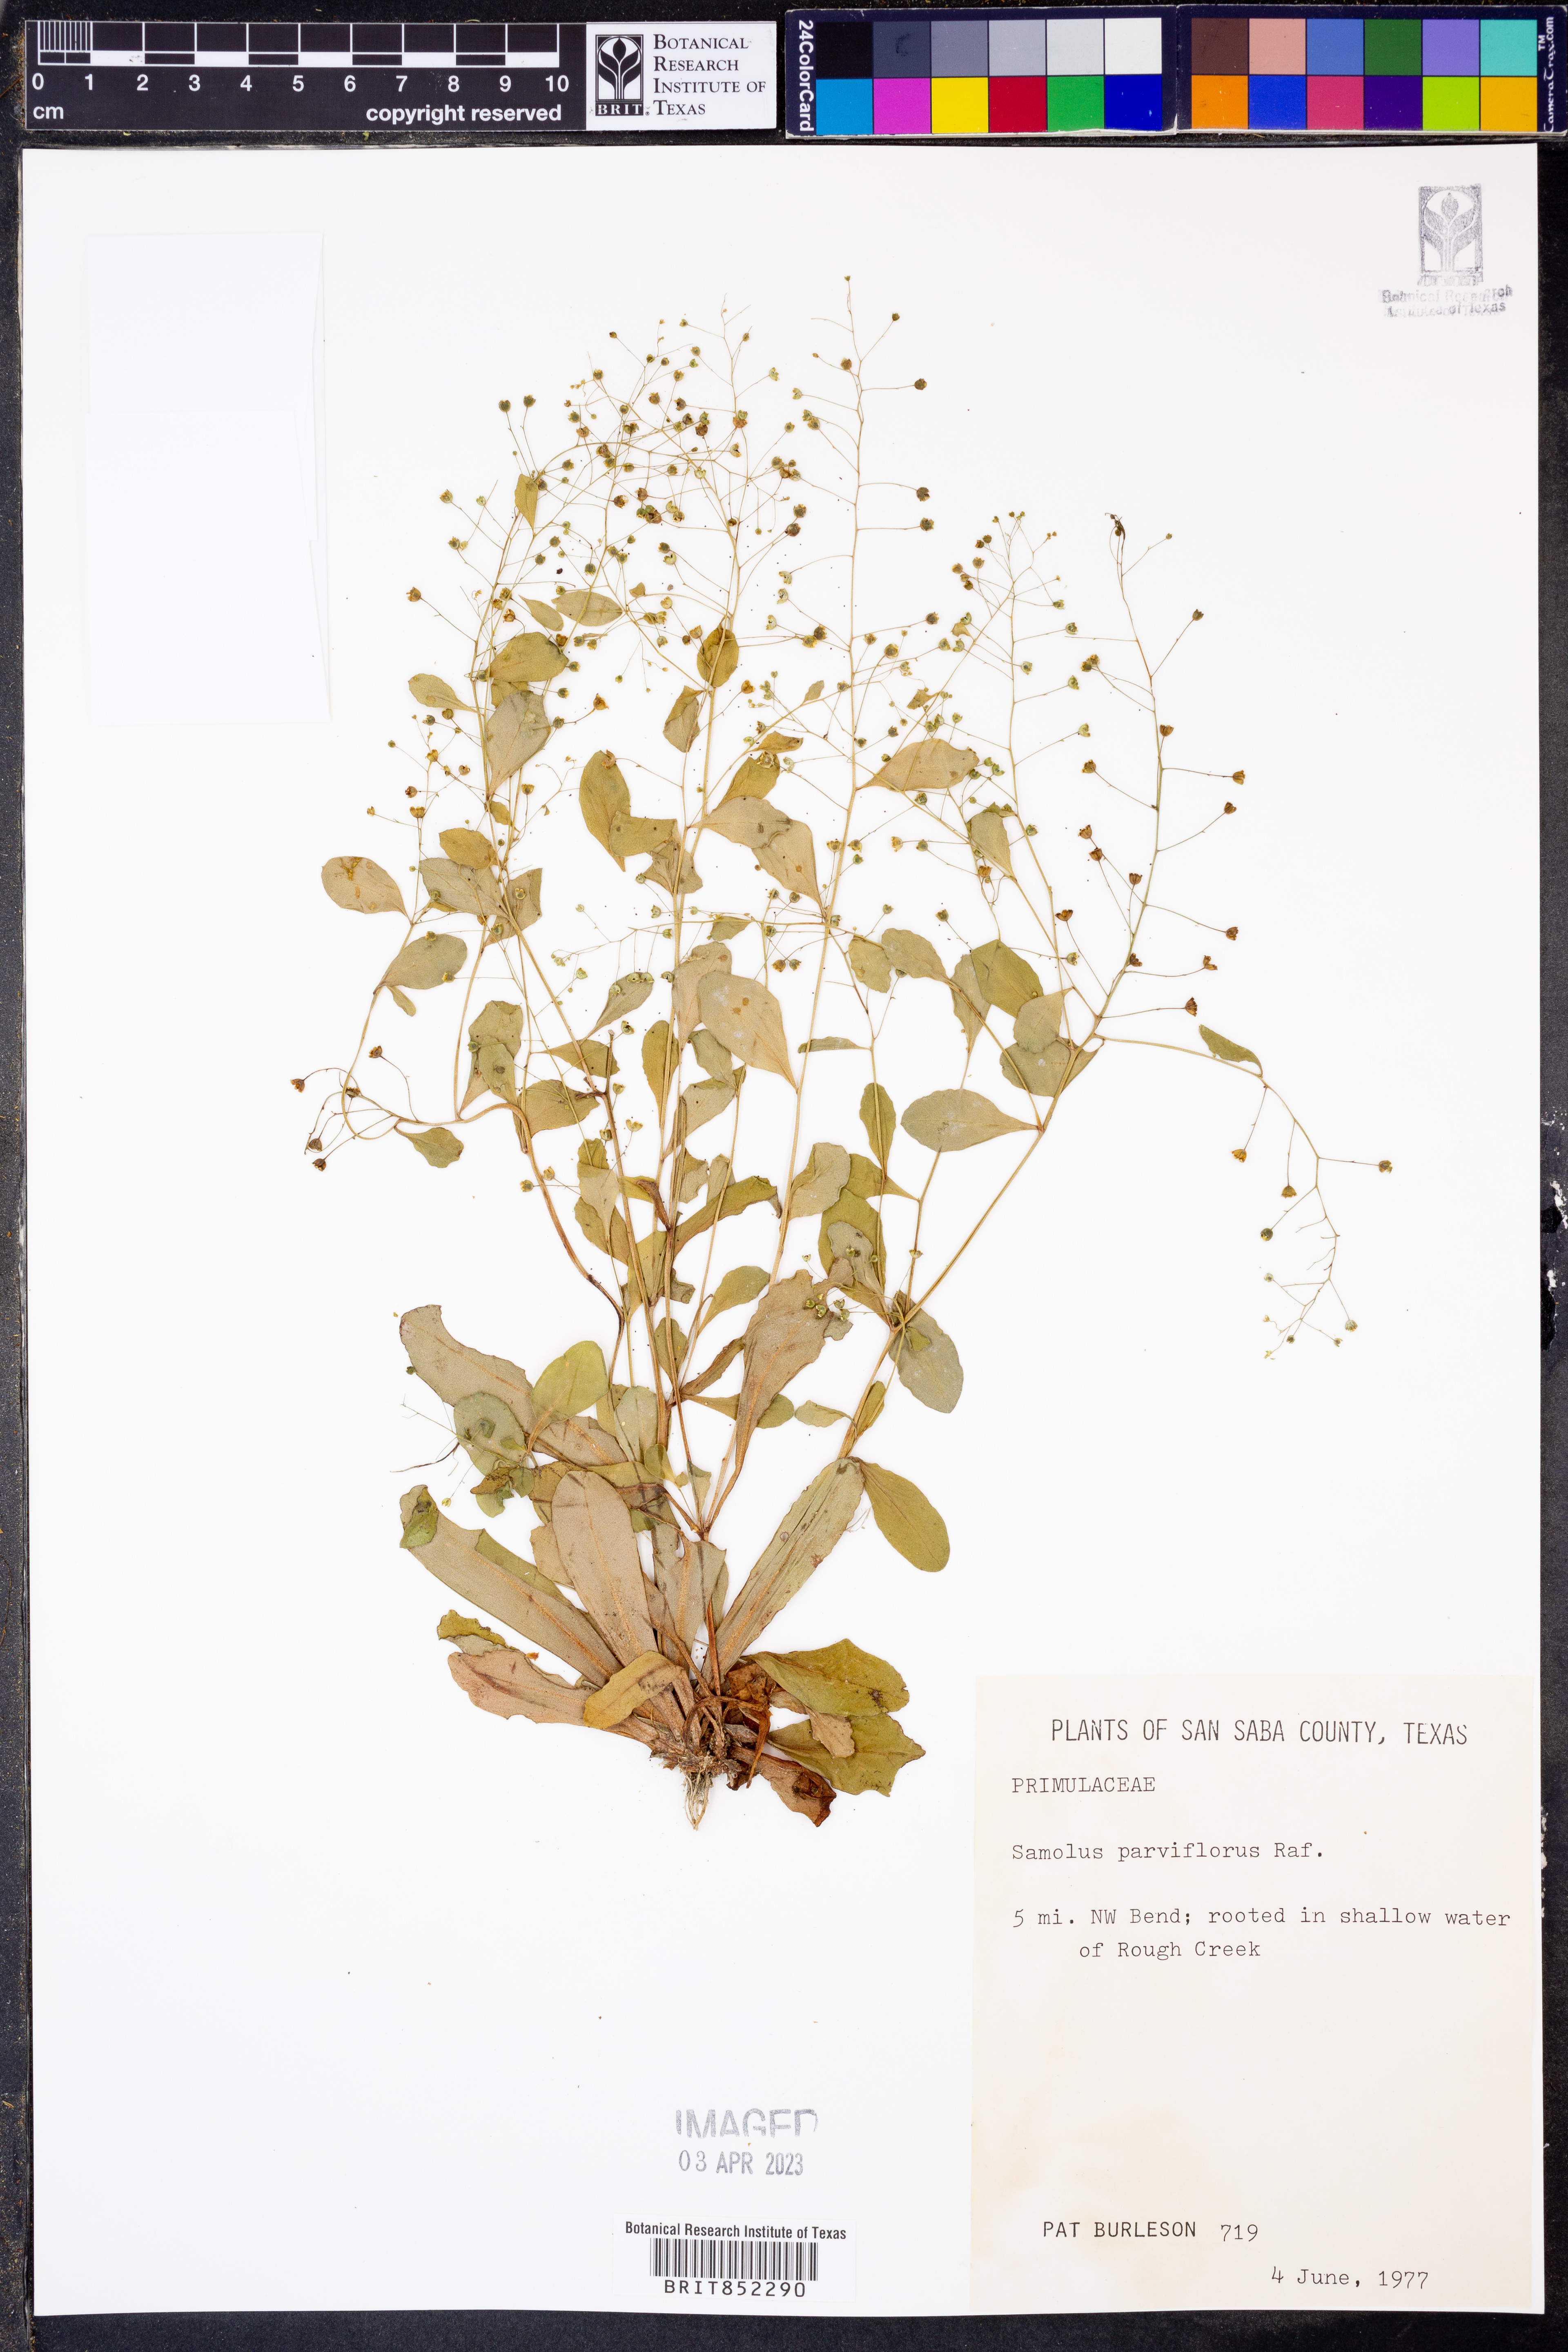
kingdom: Plantae
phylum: Tracheophyta
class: Magnoliopsida
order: Ericales
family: Primulaceae
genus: Samolus
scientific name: Samolus parviflorus
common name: False water pimpernel
